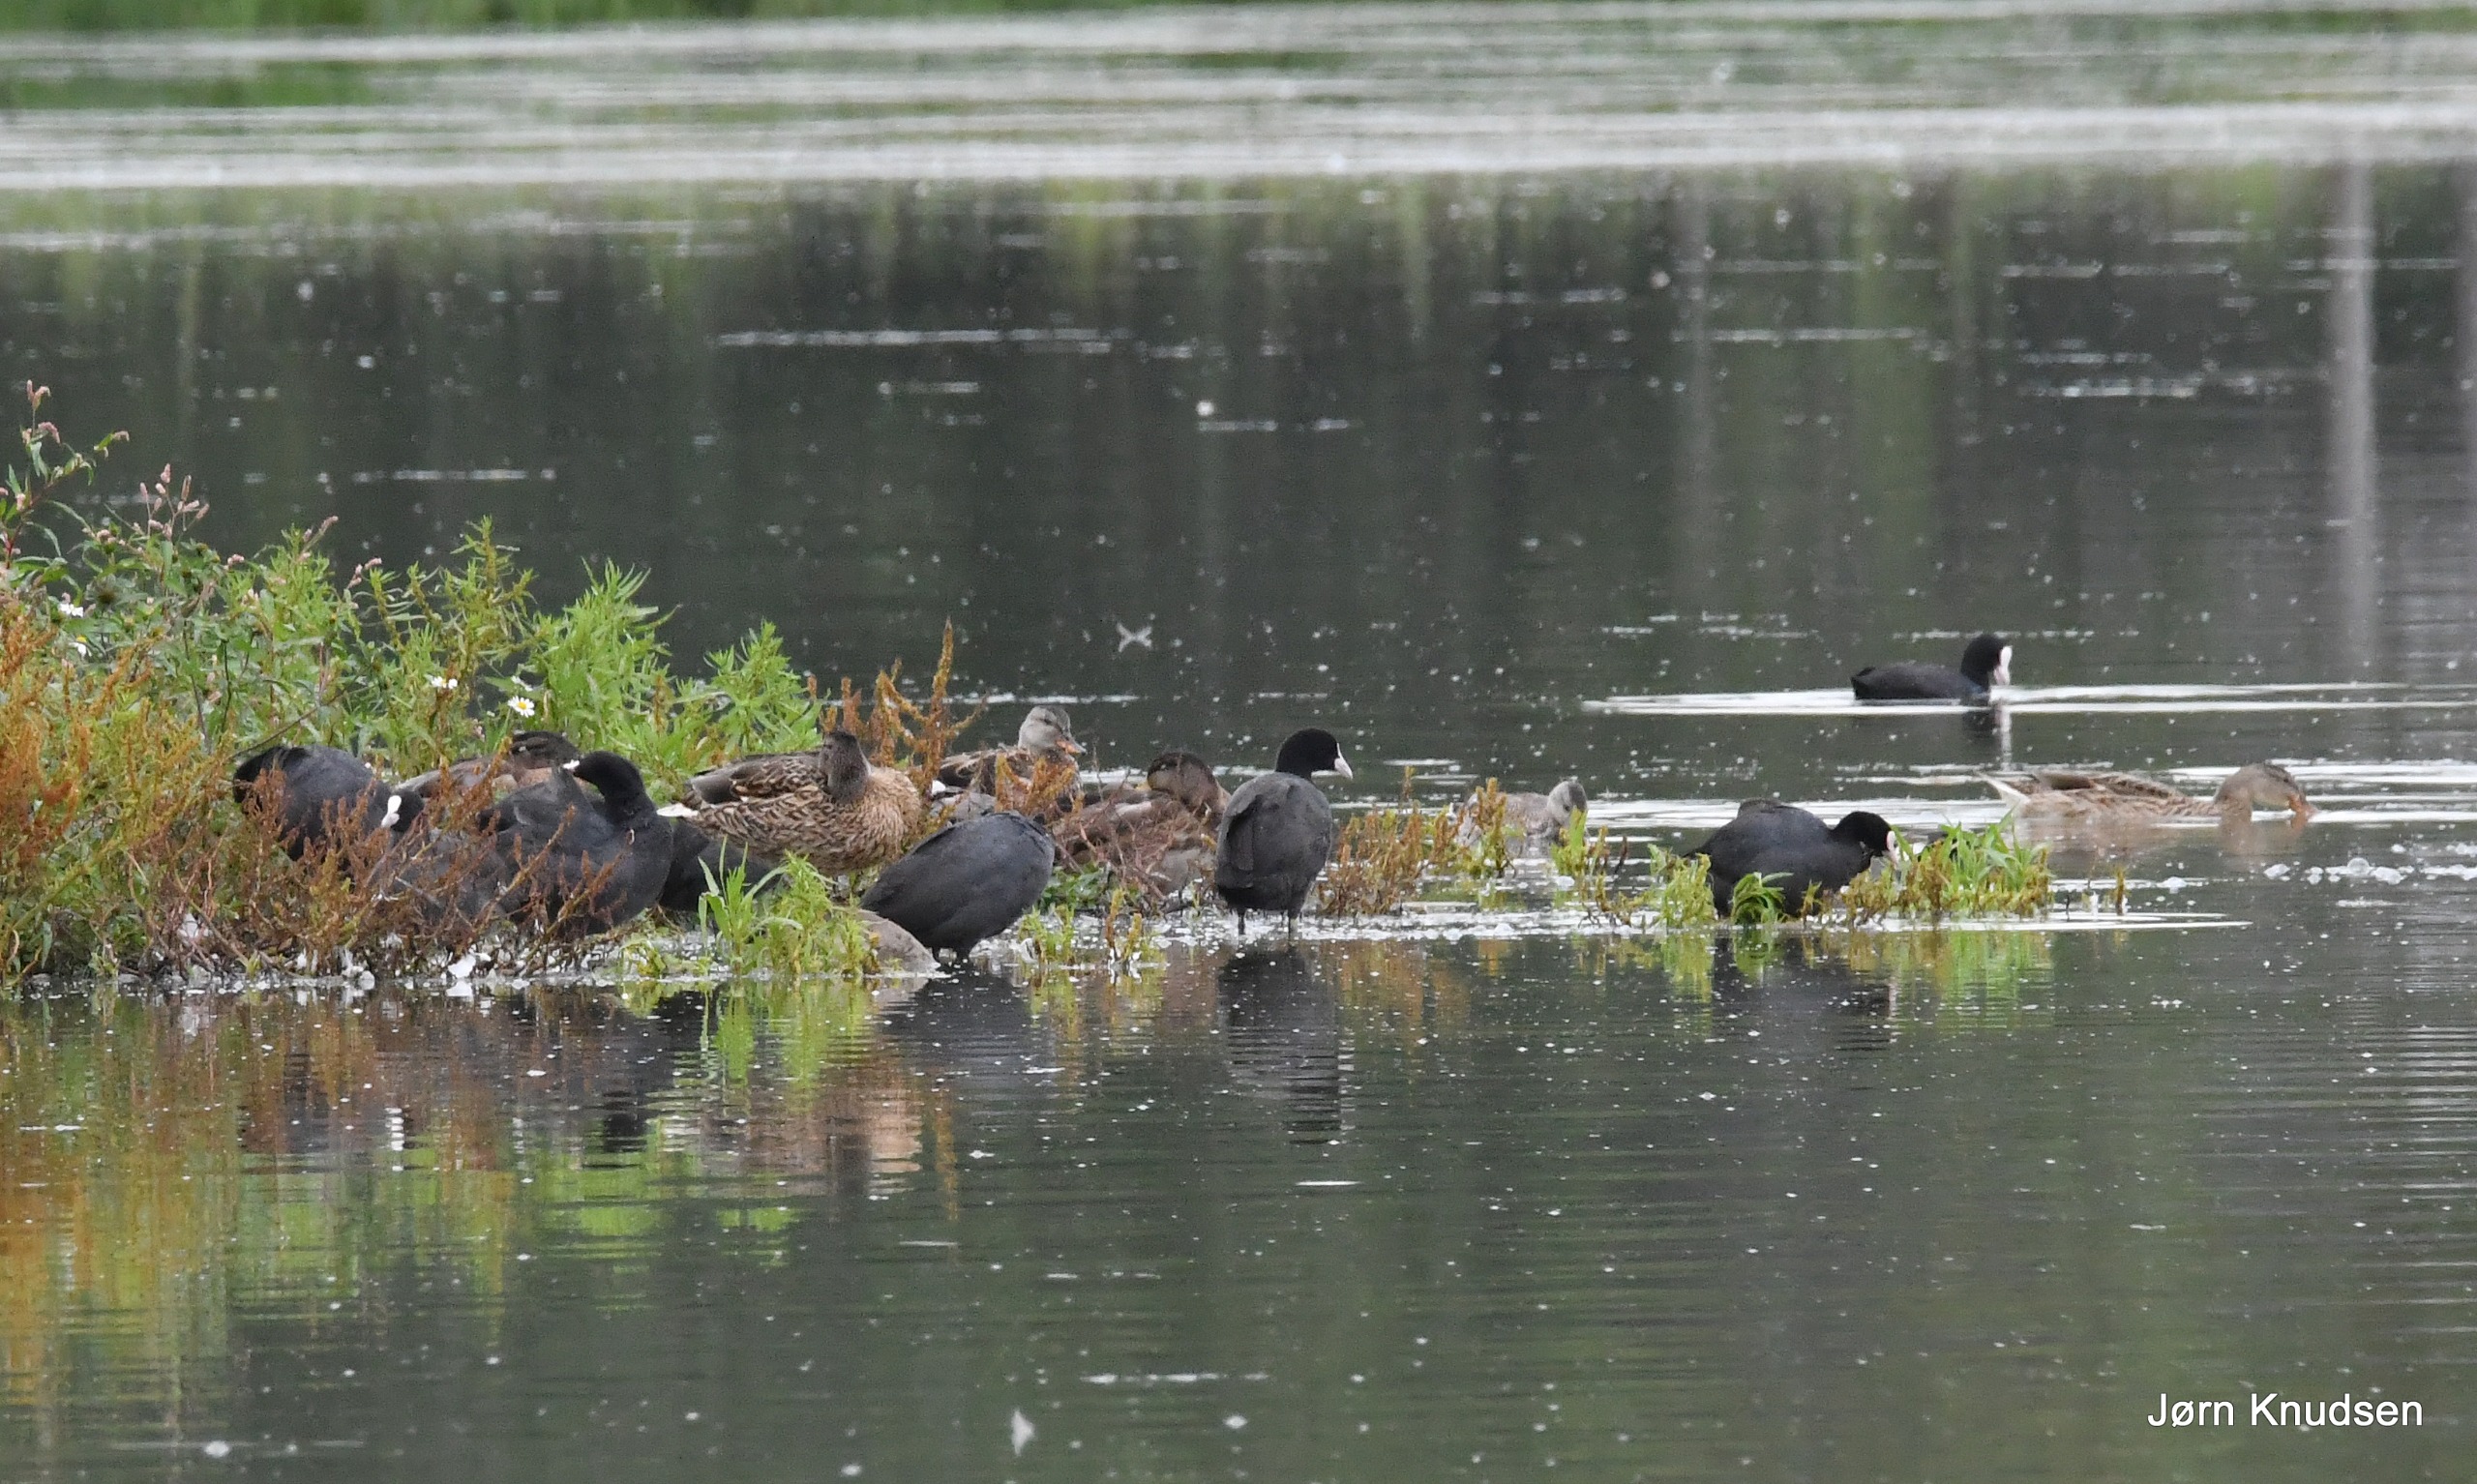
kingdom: Animalia
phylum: Chordata
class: Aves
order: Gruiformes
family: Rallidae
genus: Fulica
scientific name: Fulica atra
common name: Blishøne
